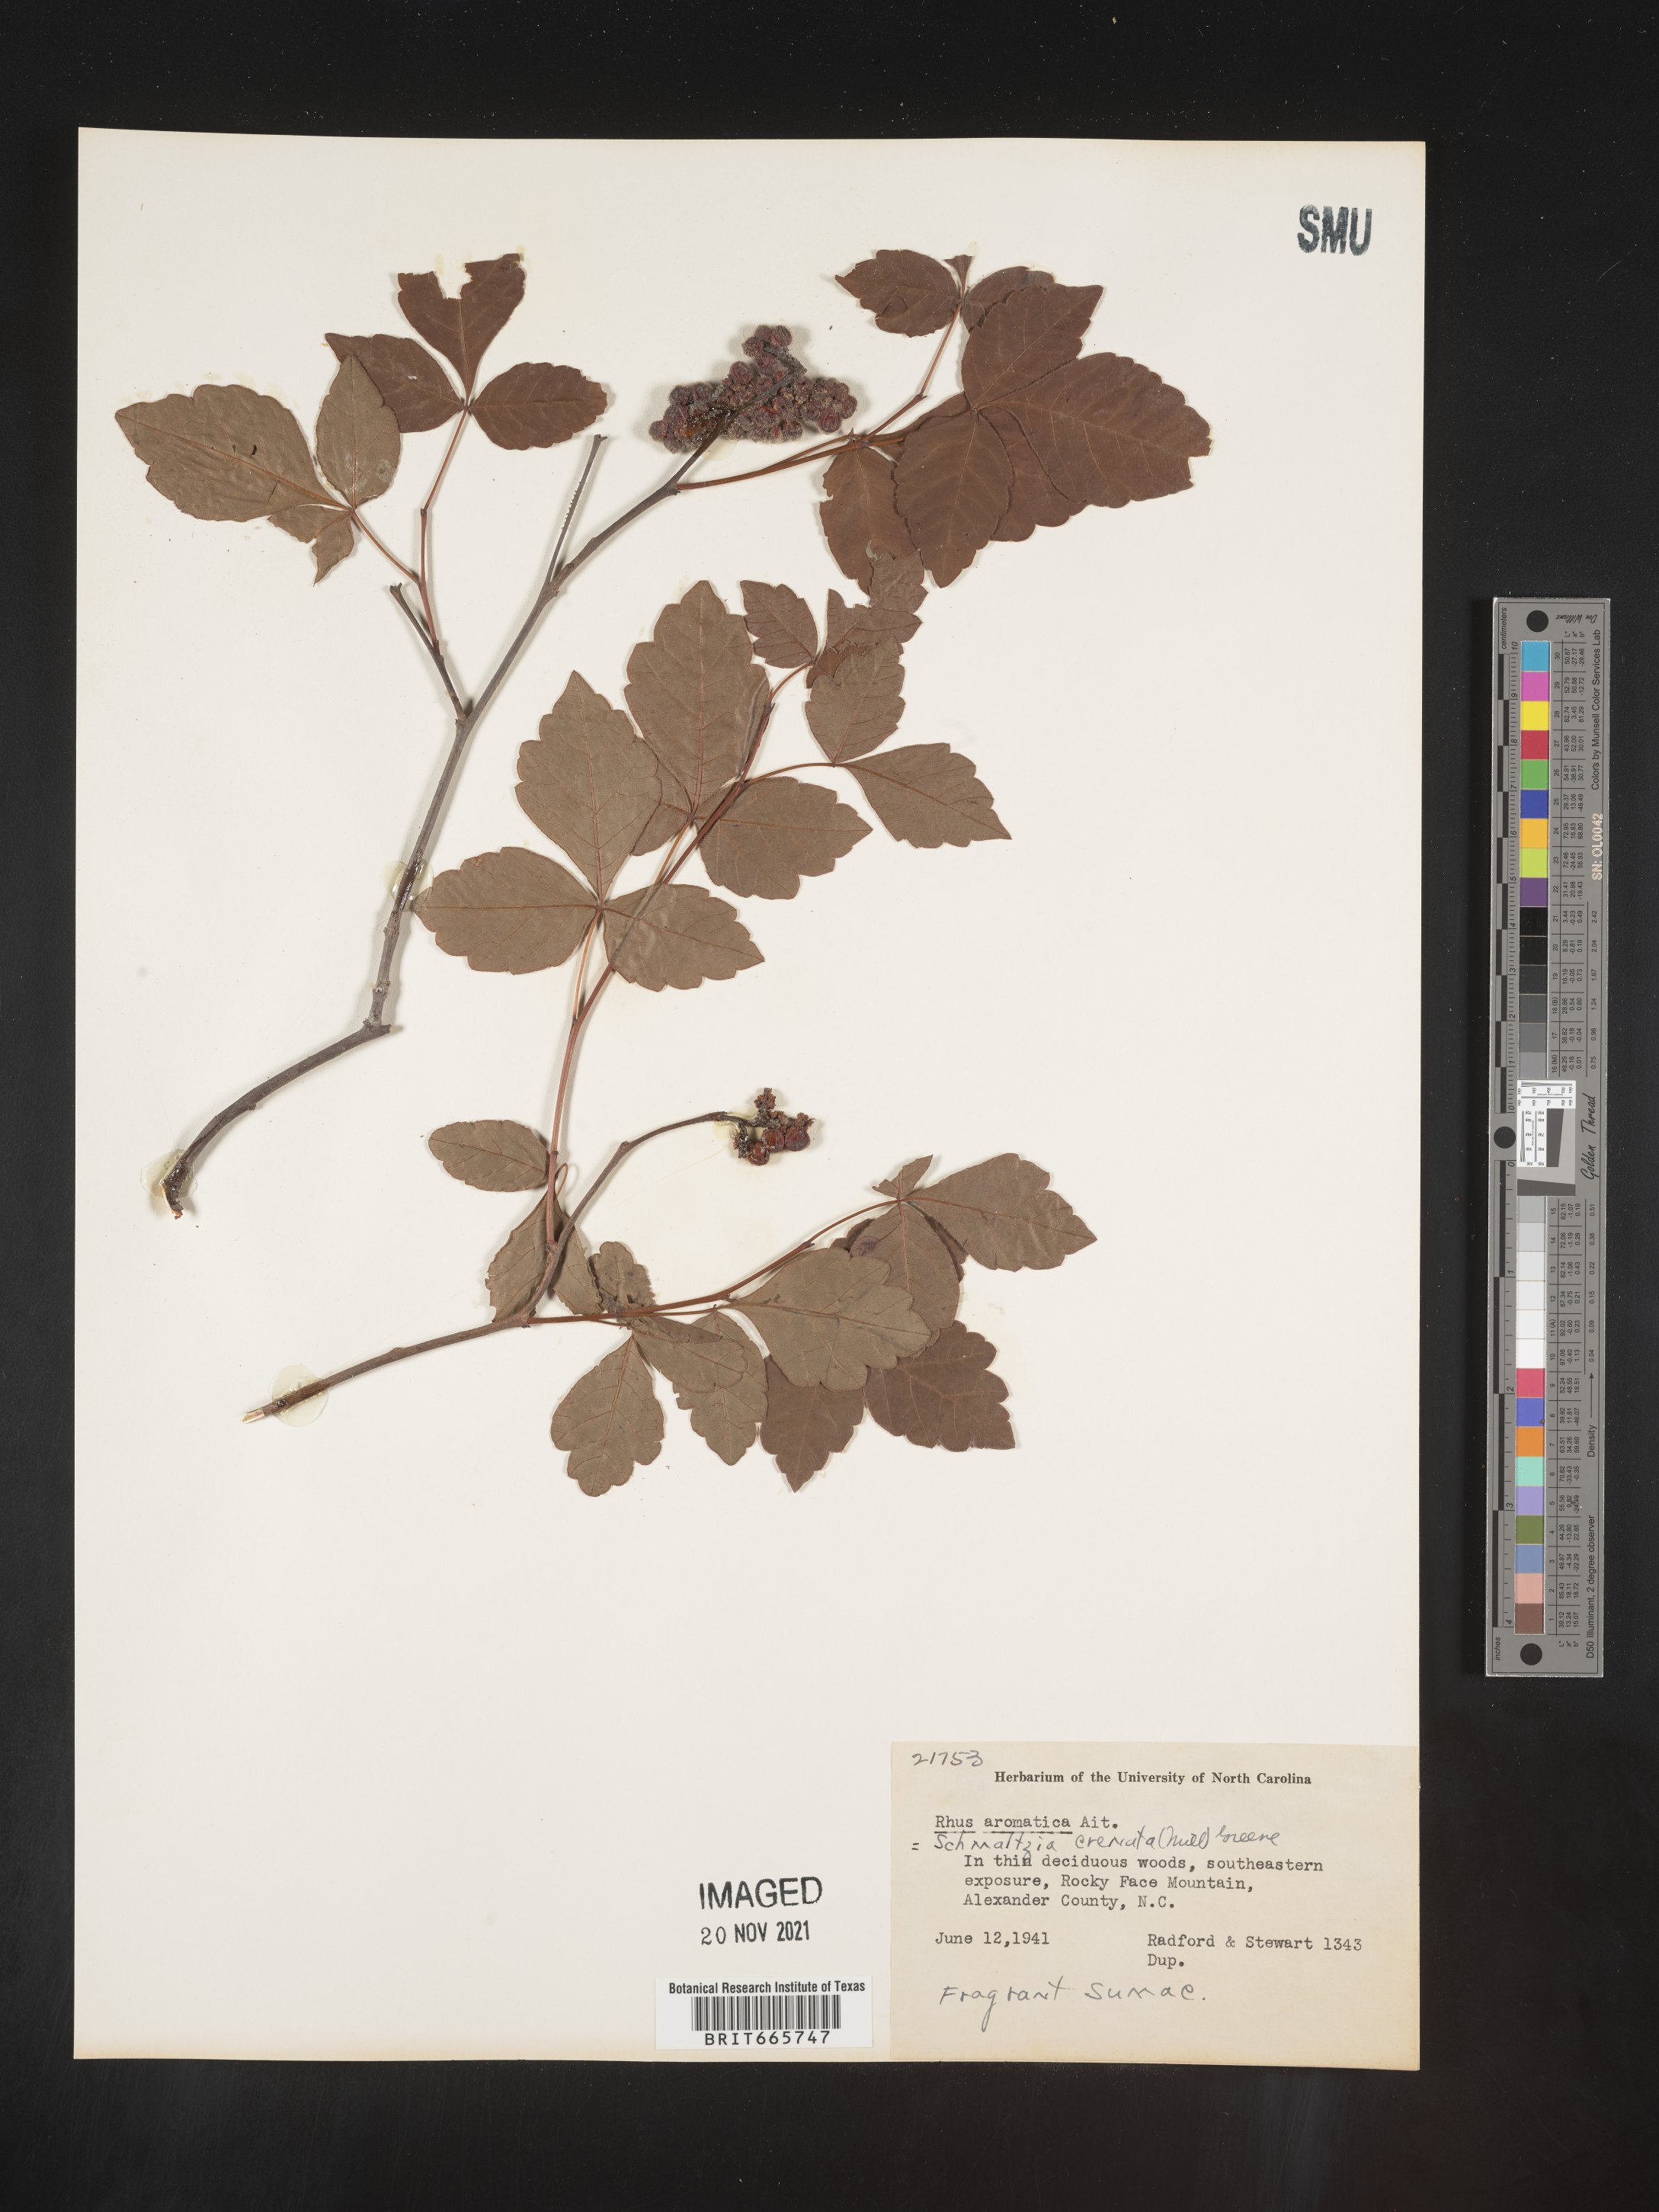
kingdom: Plantae
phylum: Tracheophyta
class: Magnoliopsida
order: Sapindales
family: Anacardiaceae
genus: Rhus
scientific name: Rhus aromatica
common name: Aromatic sumac
